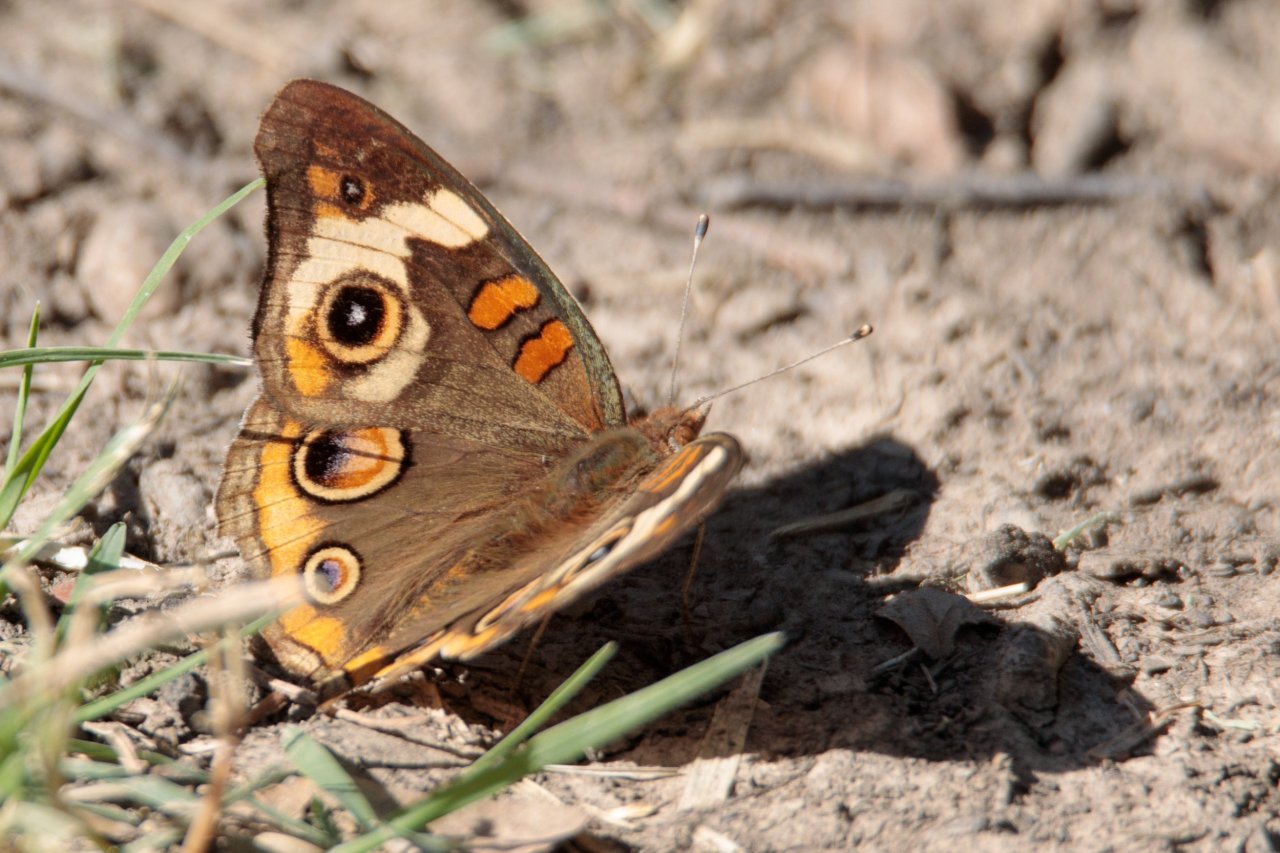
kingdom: Animalia
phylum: Arthropoda
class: Insecta
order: Lepidoptera
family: Nymphalidae
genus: Junonia
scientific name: Junonia coenia
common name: Common Buckeye
